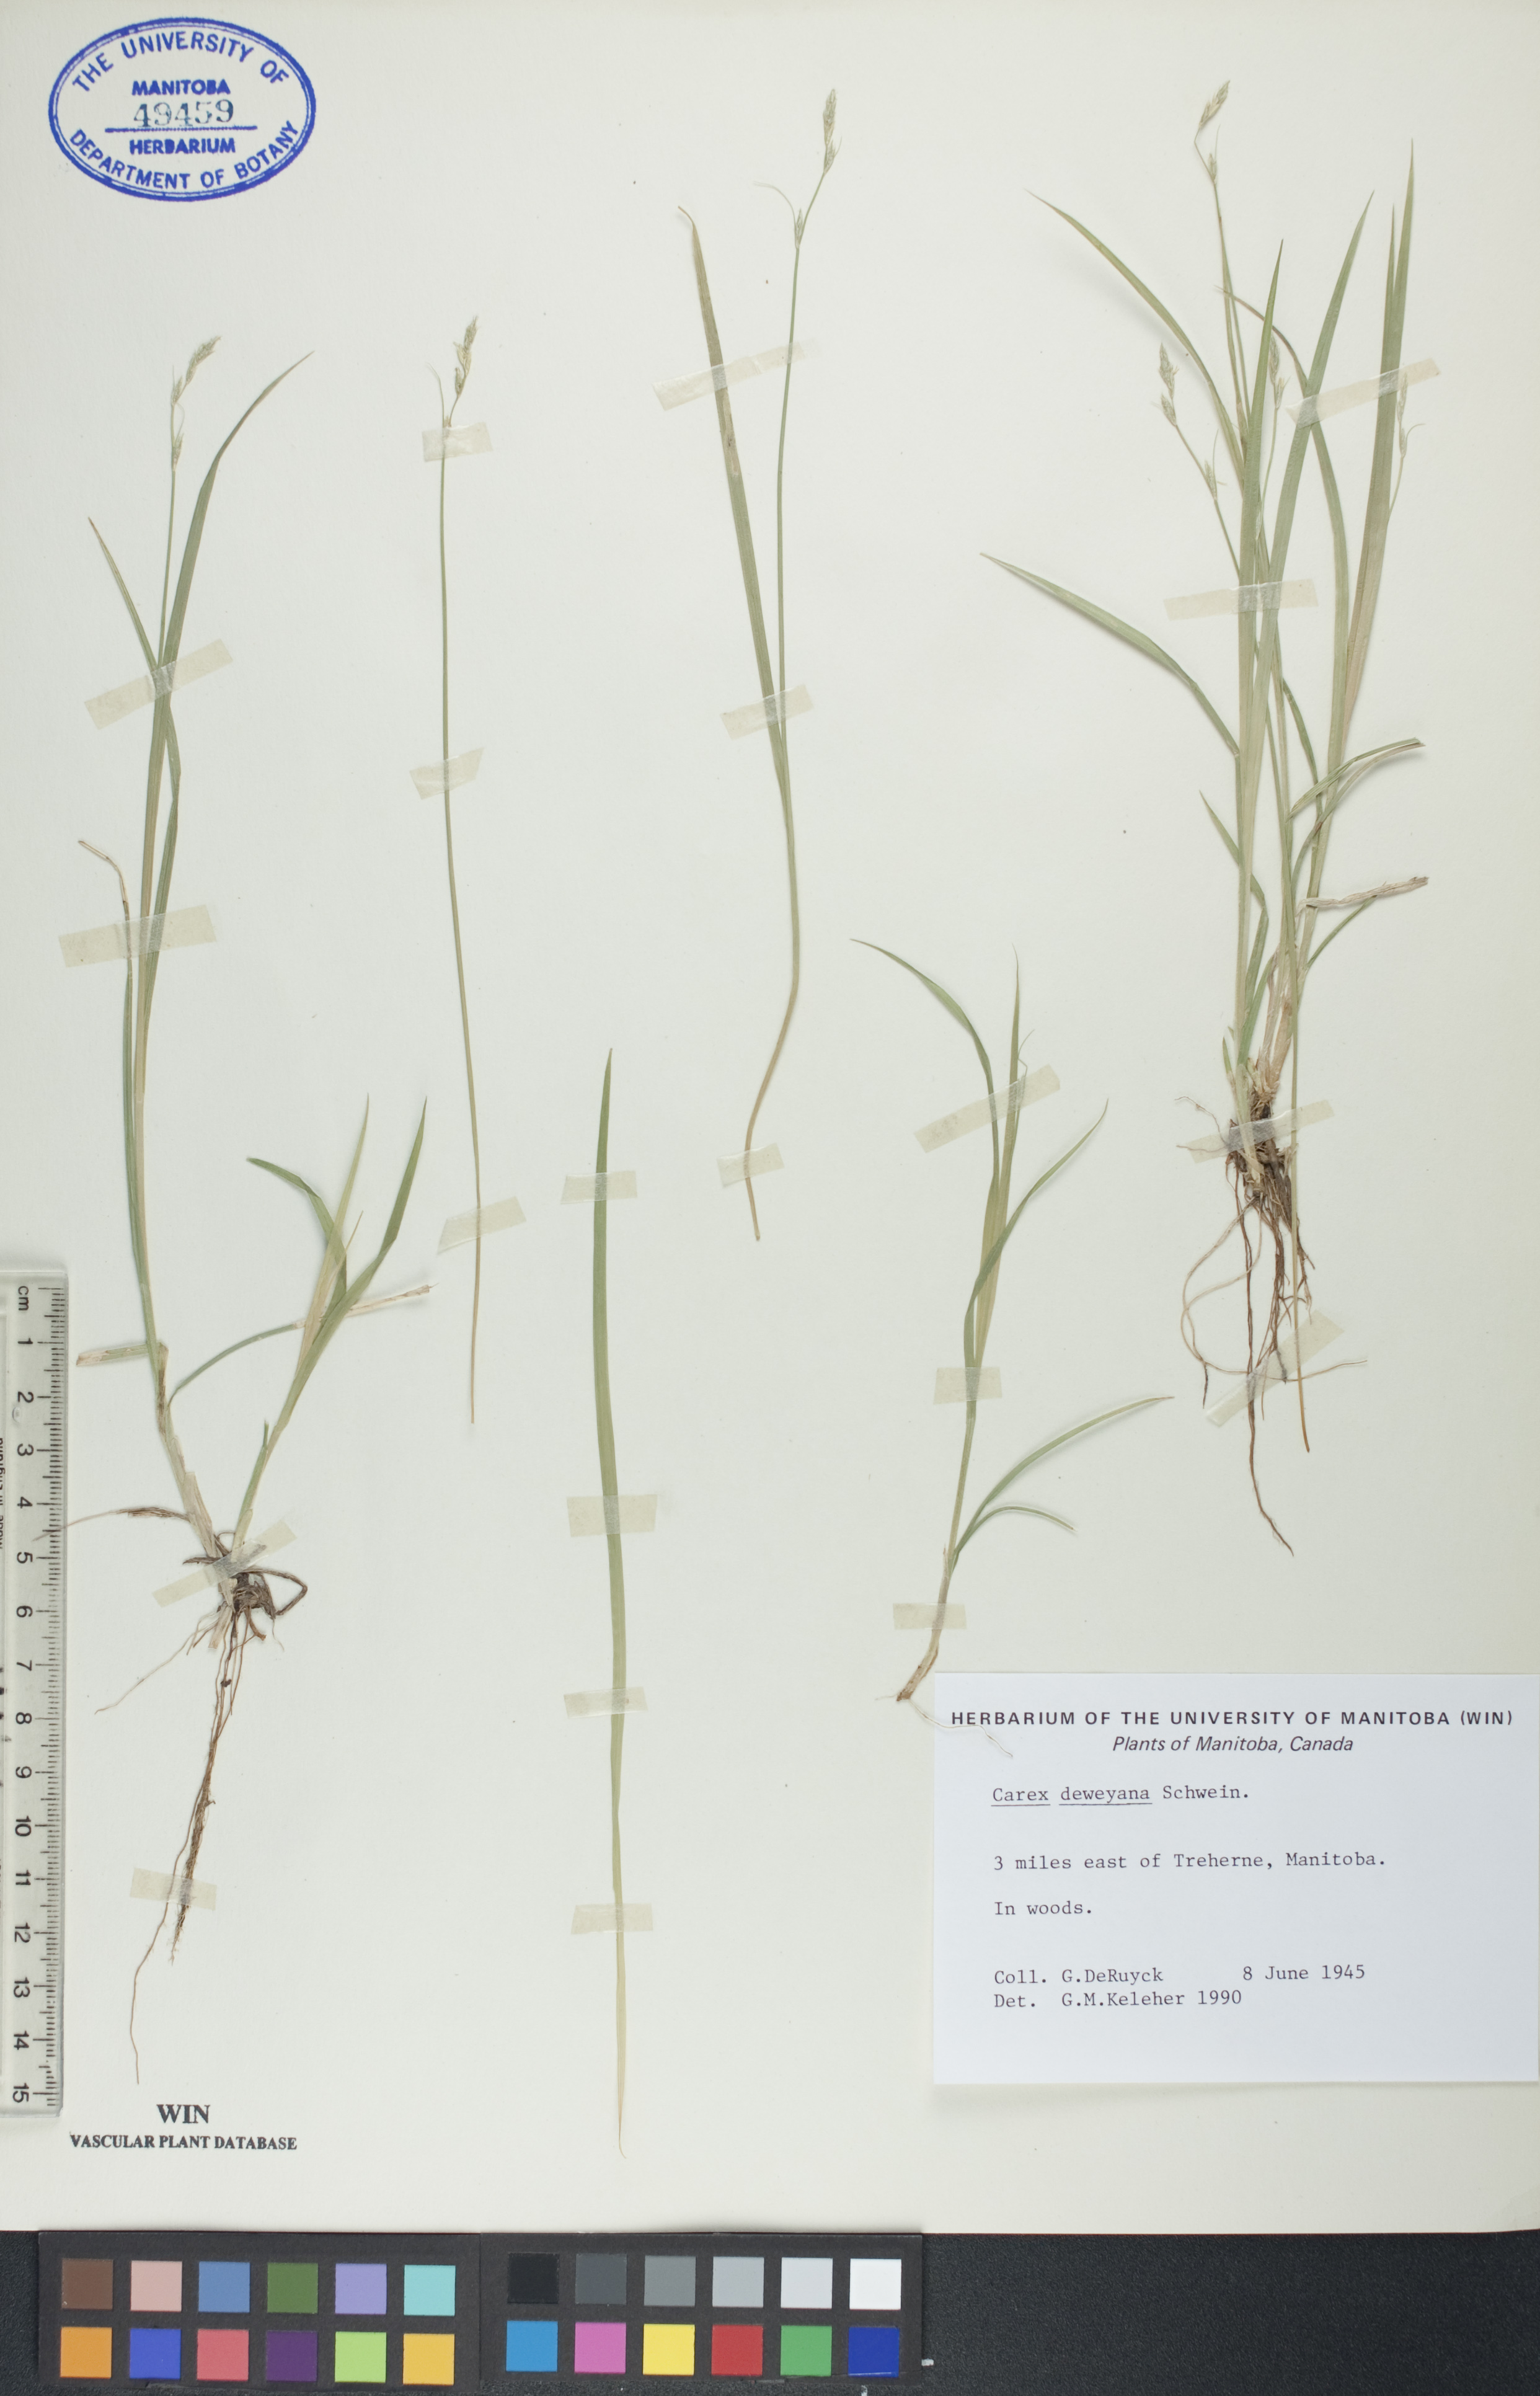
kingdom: Plantae
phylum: Tracheophyta
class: Liliopsida
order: Poales
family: Cyperaceae
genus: Carex
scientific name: Carex deweyana
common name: Dewey's sedge
